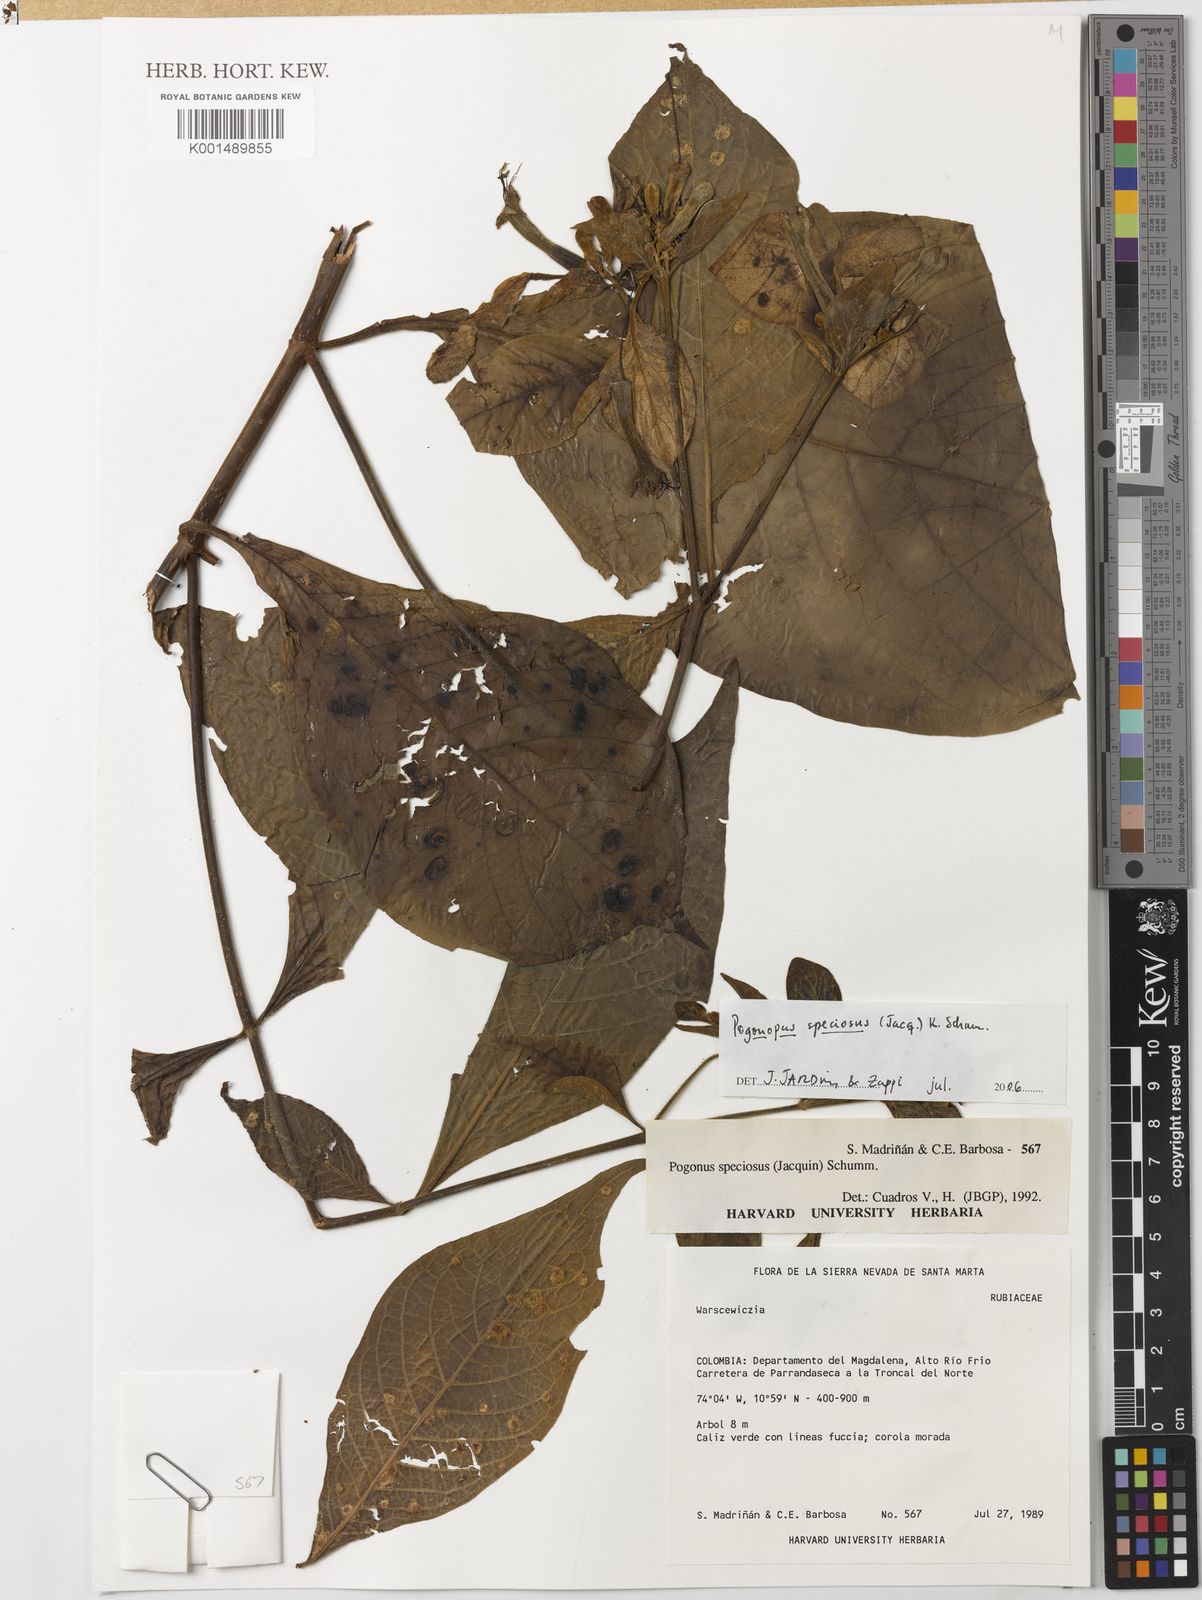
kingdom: Plantae
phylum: Tracheophyta
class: Magnoliopsida
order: Gentianales
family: Rubiaceae
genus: Pogonopus
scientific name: Pogonopus speciosus
